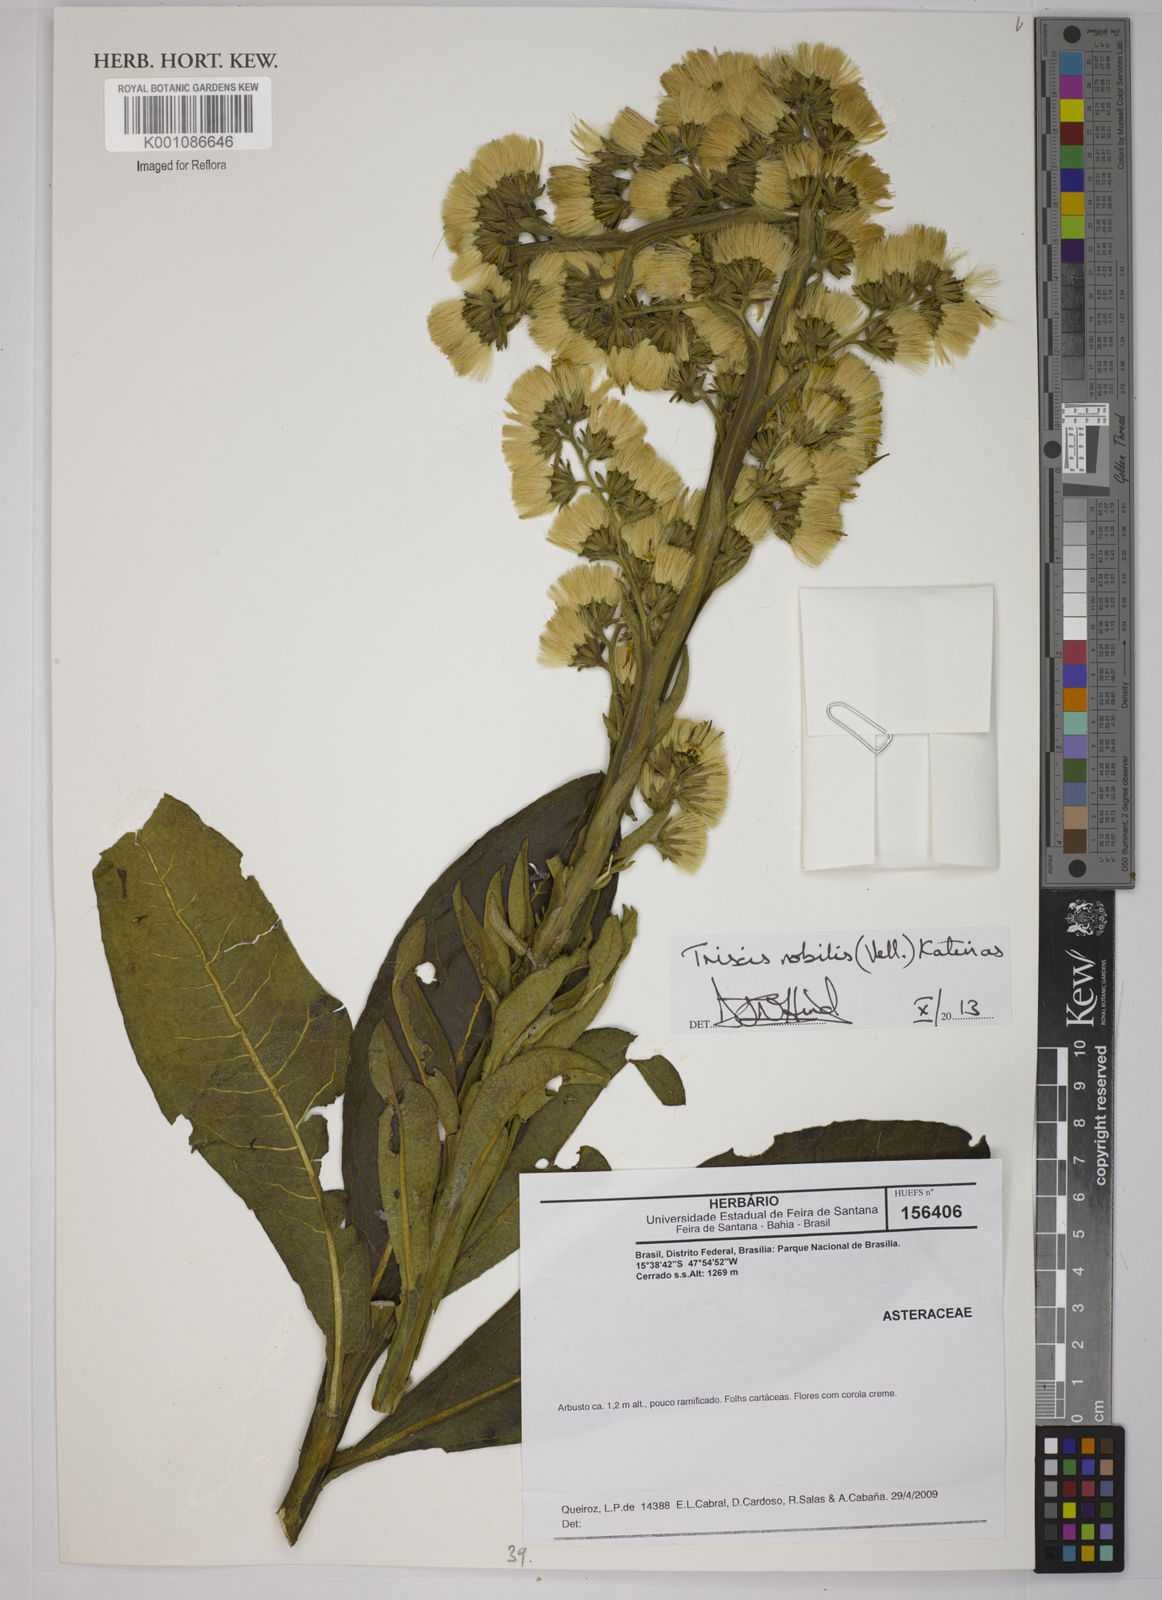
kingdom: Plantae
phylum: Tracheophyta
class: Magnoliopsida
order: Asterales
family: Asteraceae
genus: Trixis
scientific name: Trixis nobilis
